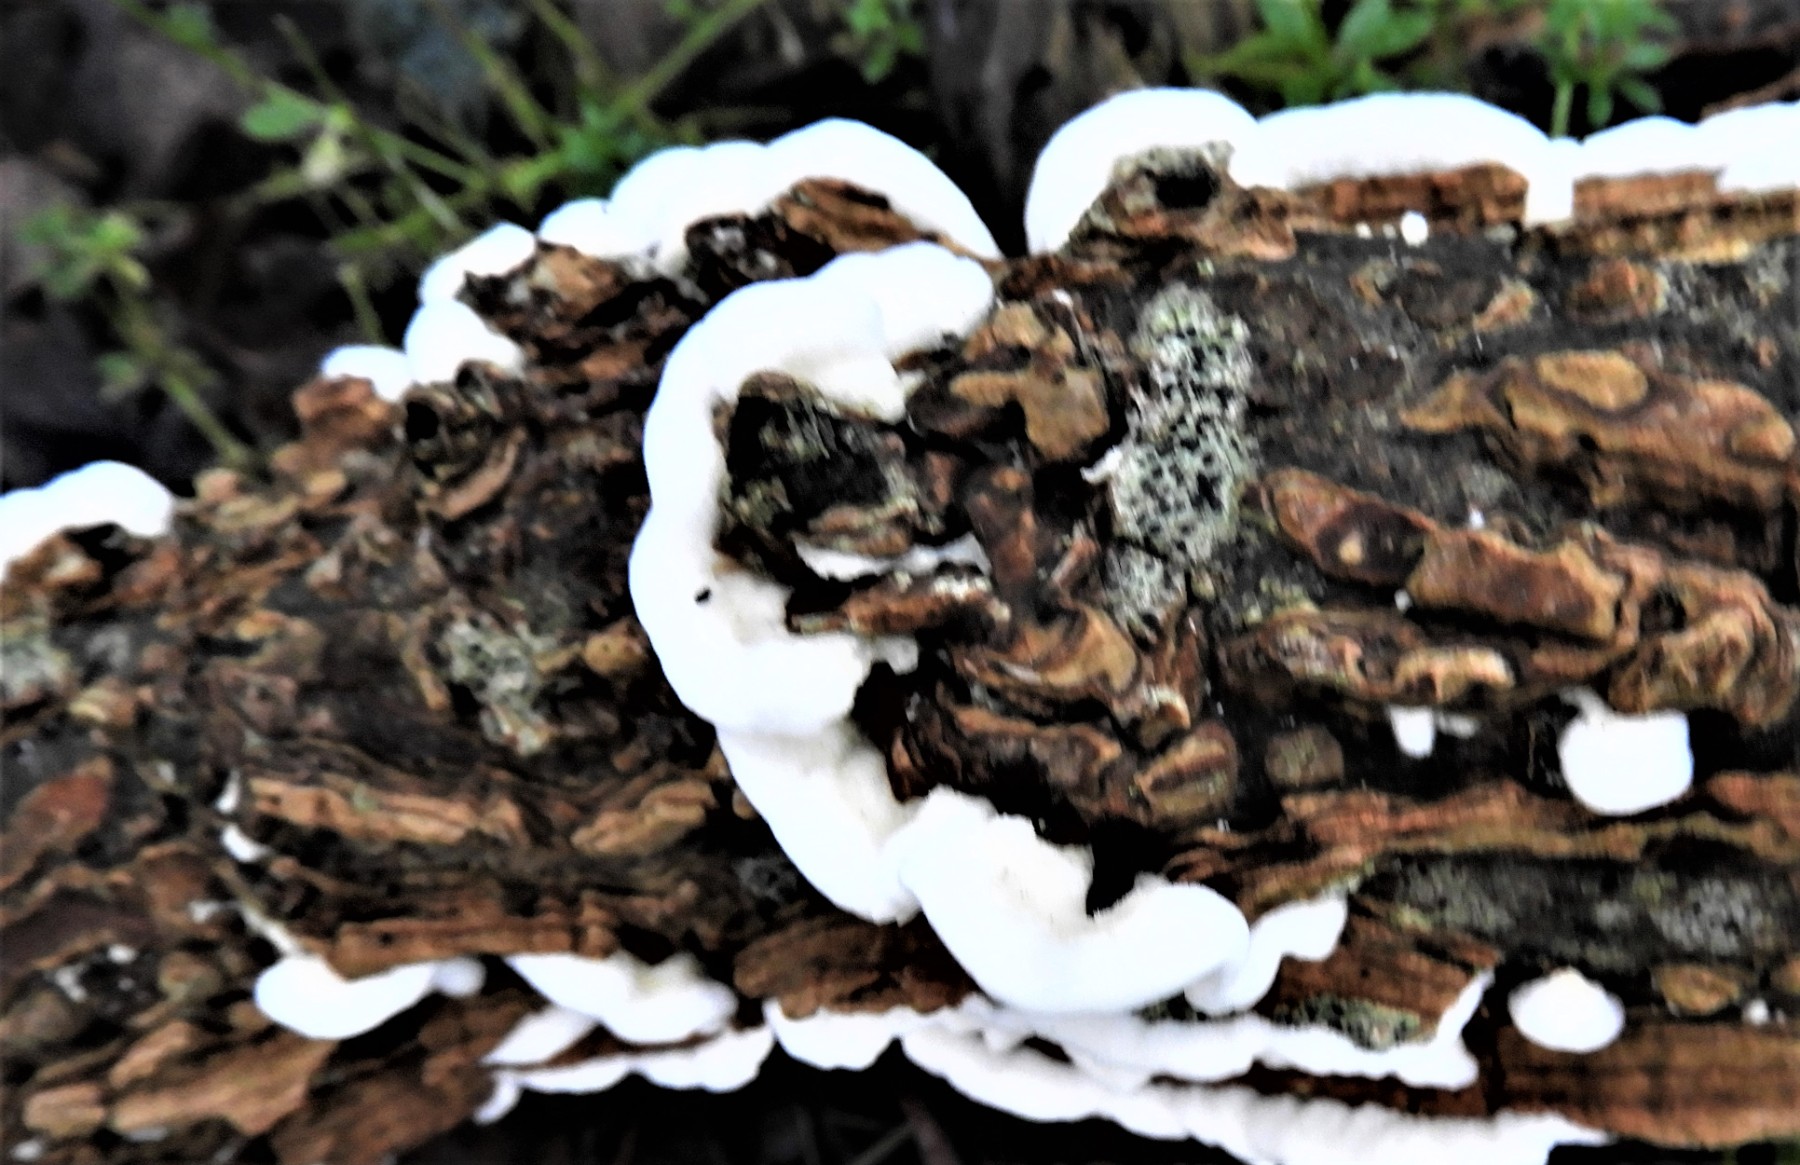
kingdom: Fungi
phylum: Basidiomycota
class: Agaricomycetes
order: Polyporales
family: Irpicaceae
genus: Byssomerulius
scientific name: Byssomerulius corium
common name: læder-åresvamp
